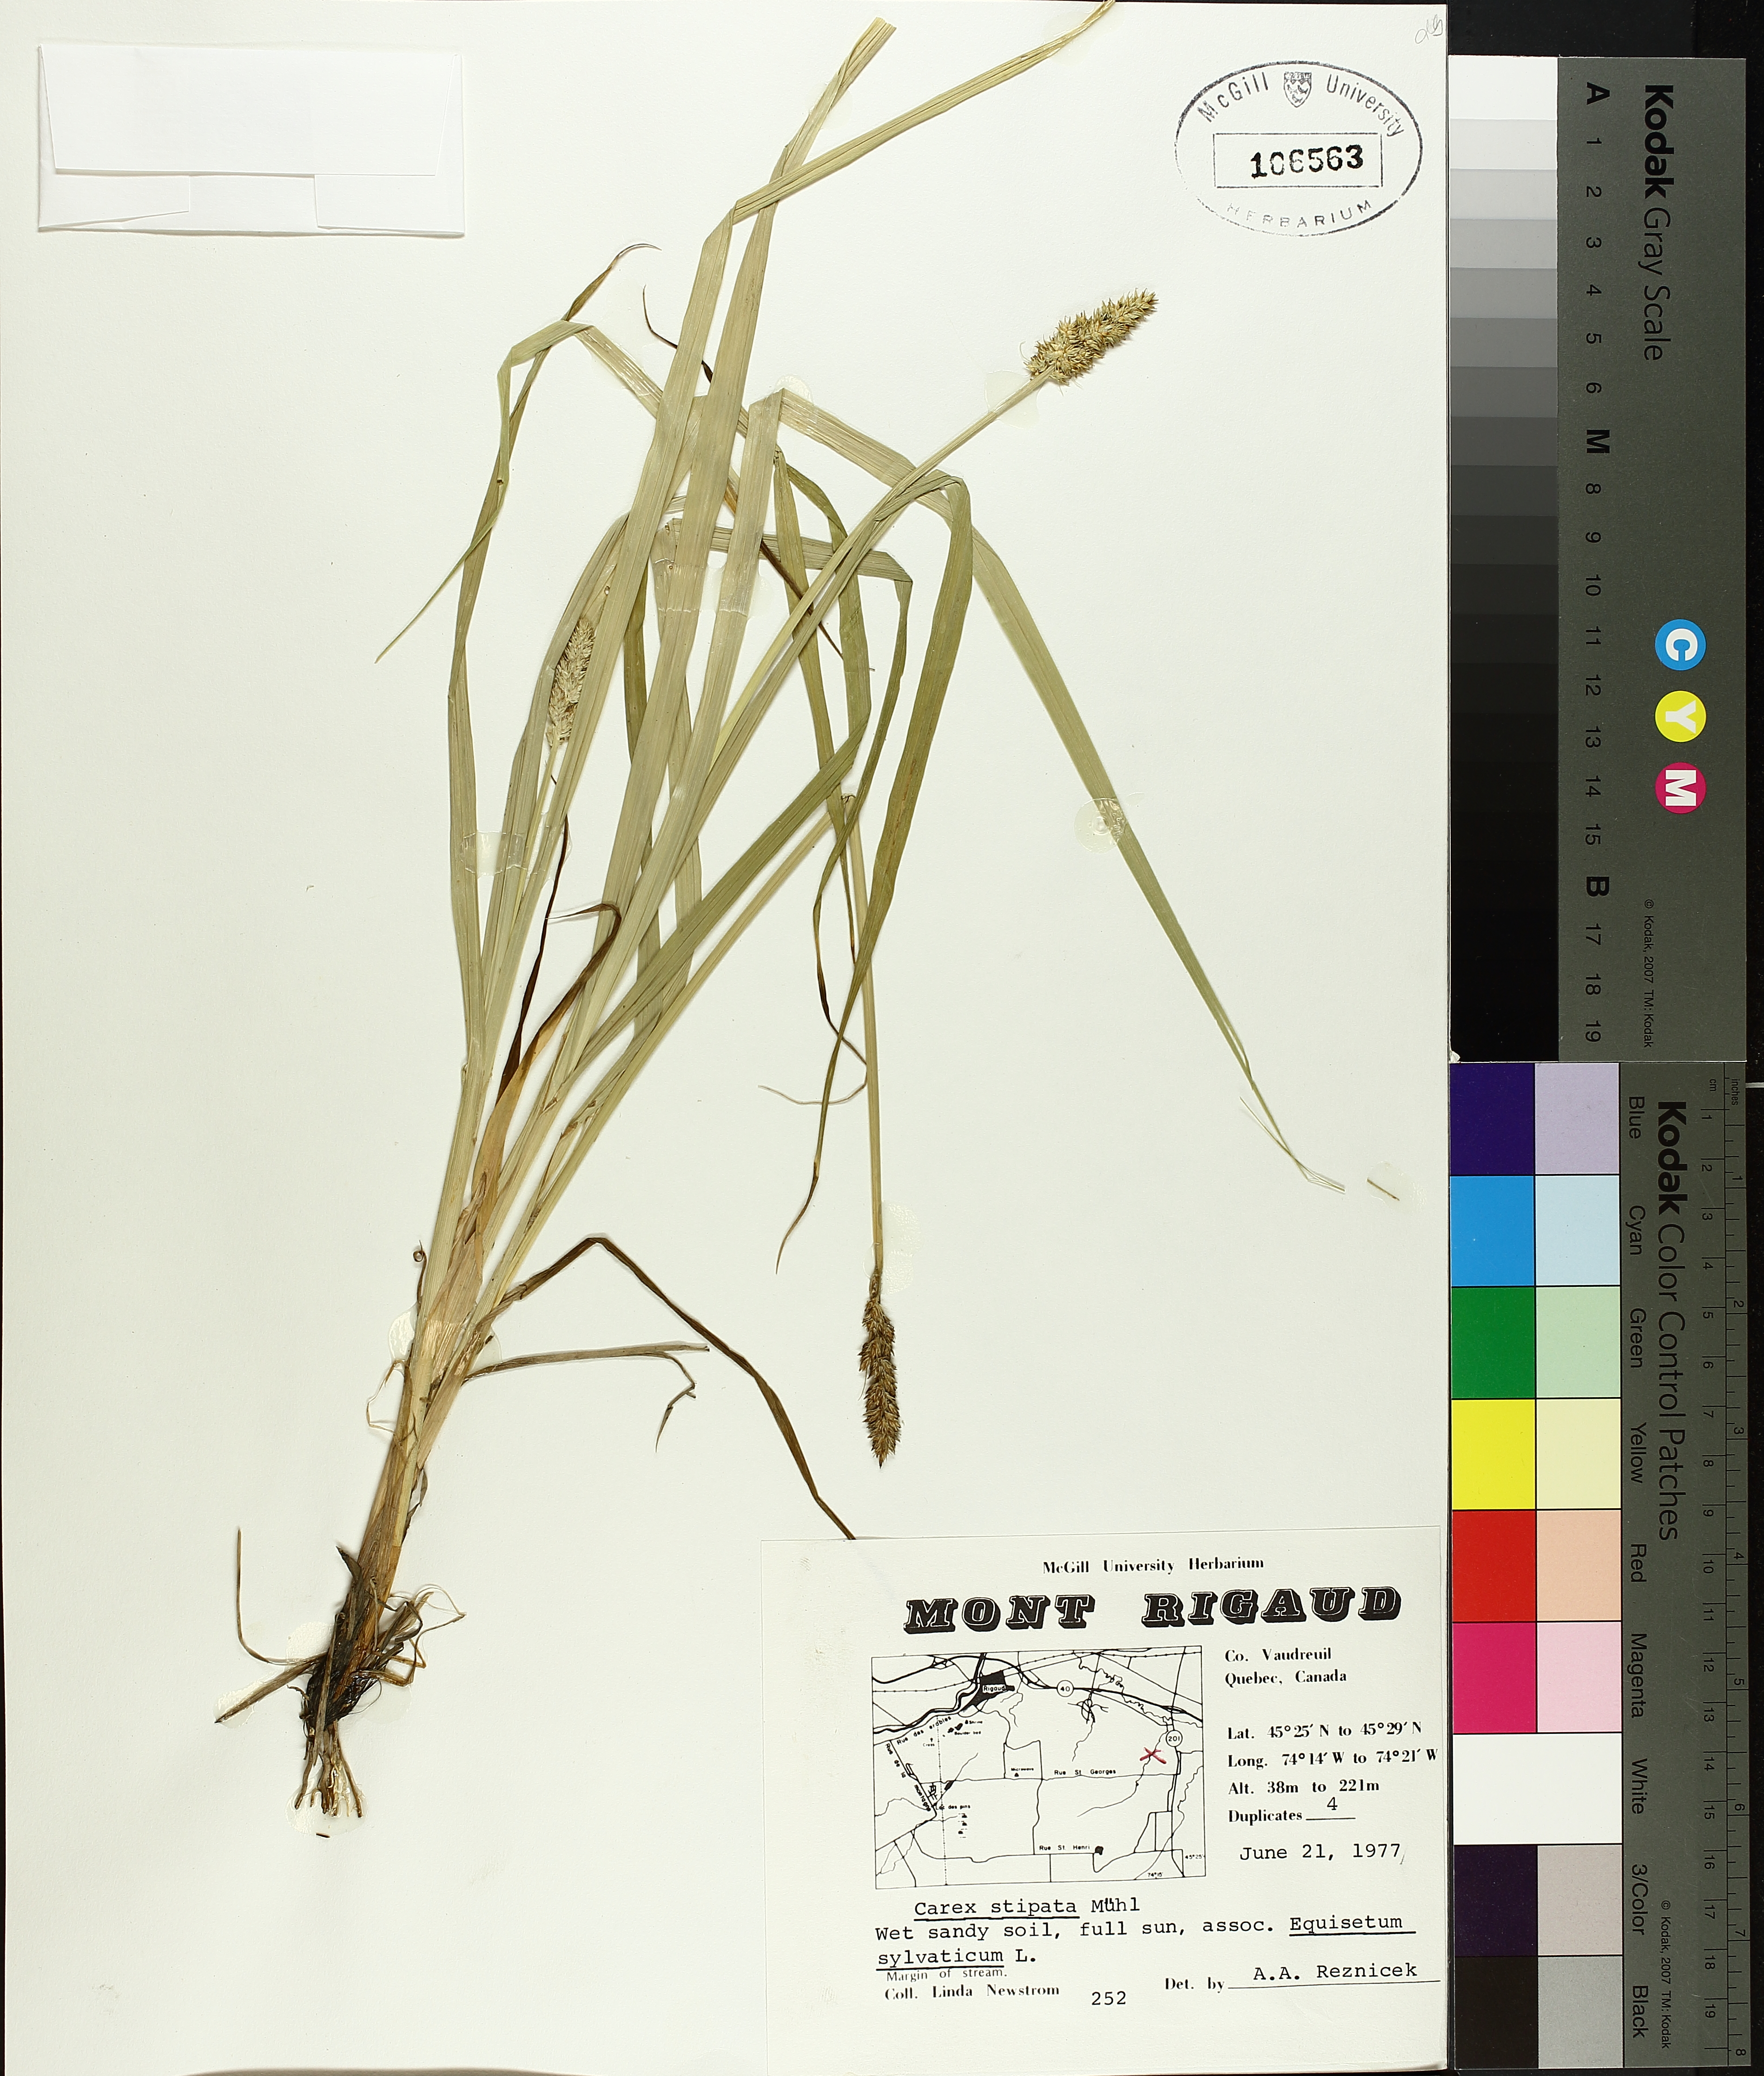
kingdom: Plantae
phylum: Tracheophyta
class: Liliopsida
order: Poales
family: Cyperaceae
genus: Carex
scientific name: Carex stipata
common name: Awl-fruited sedge
